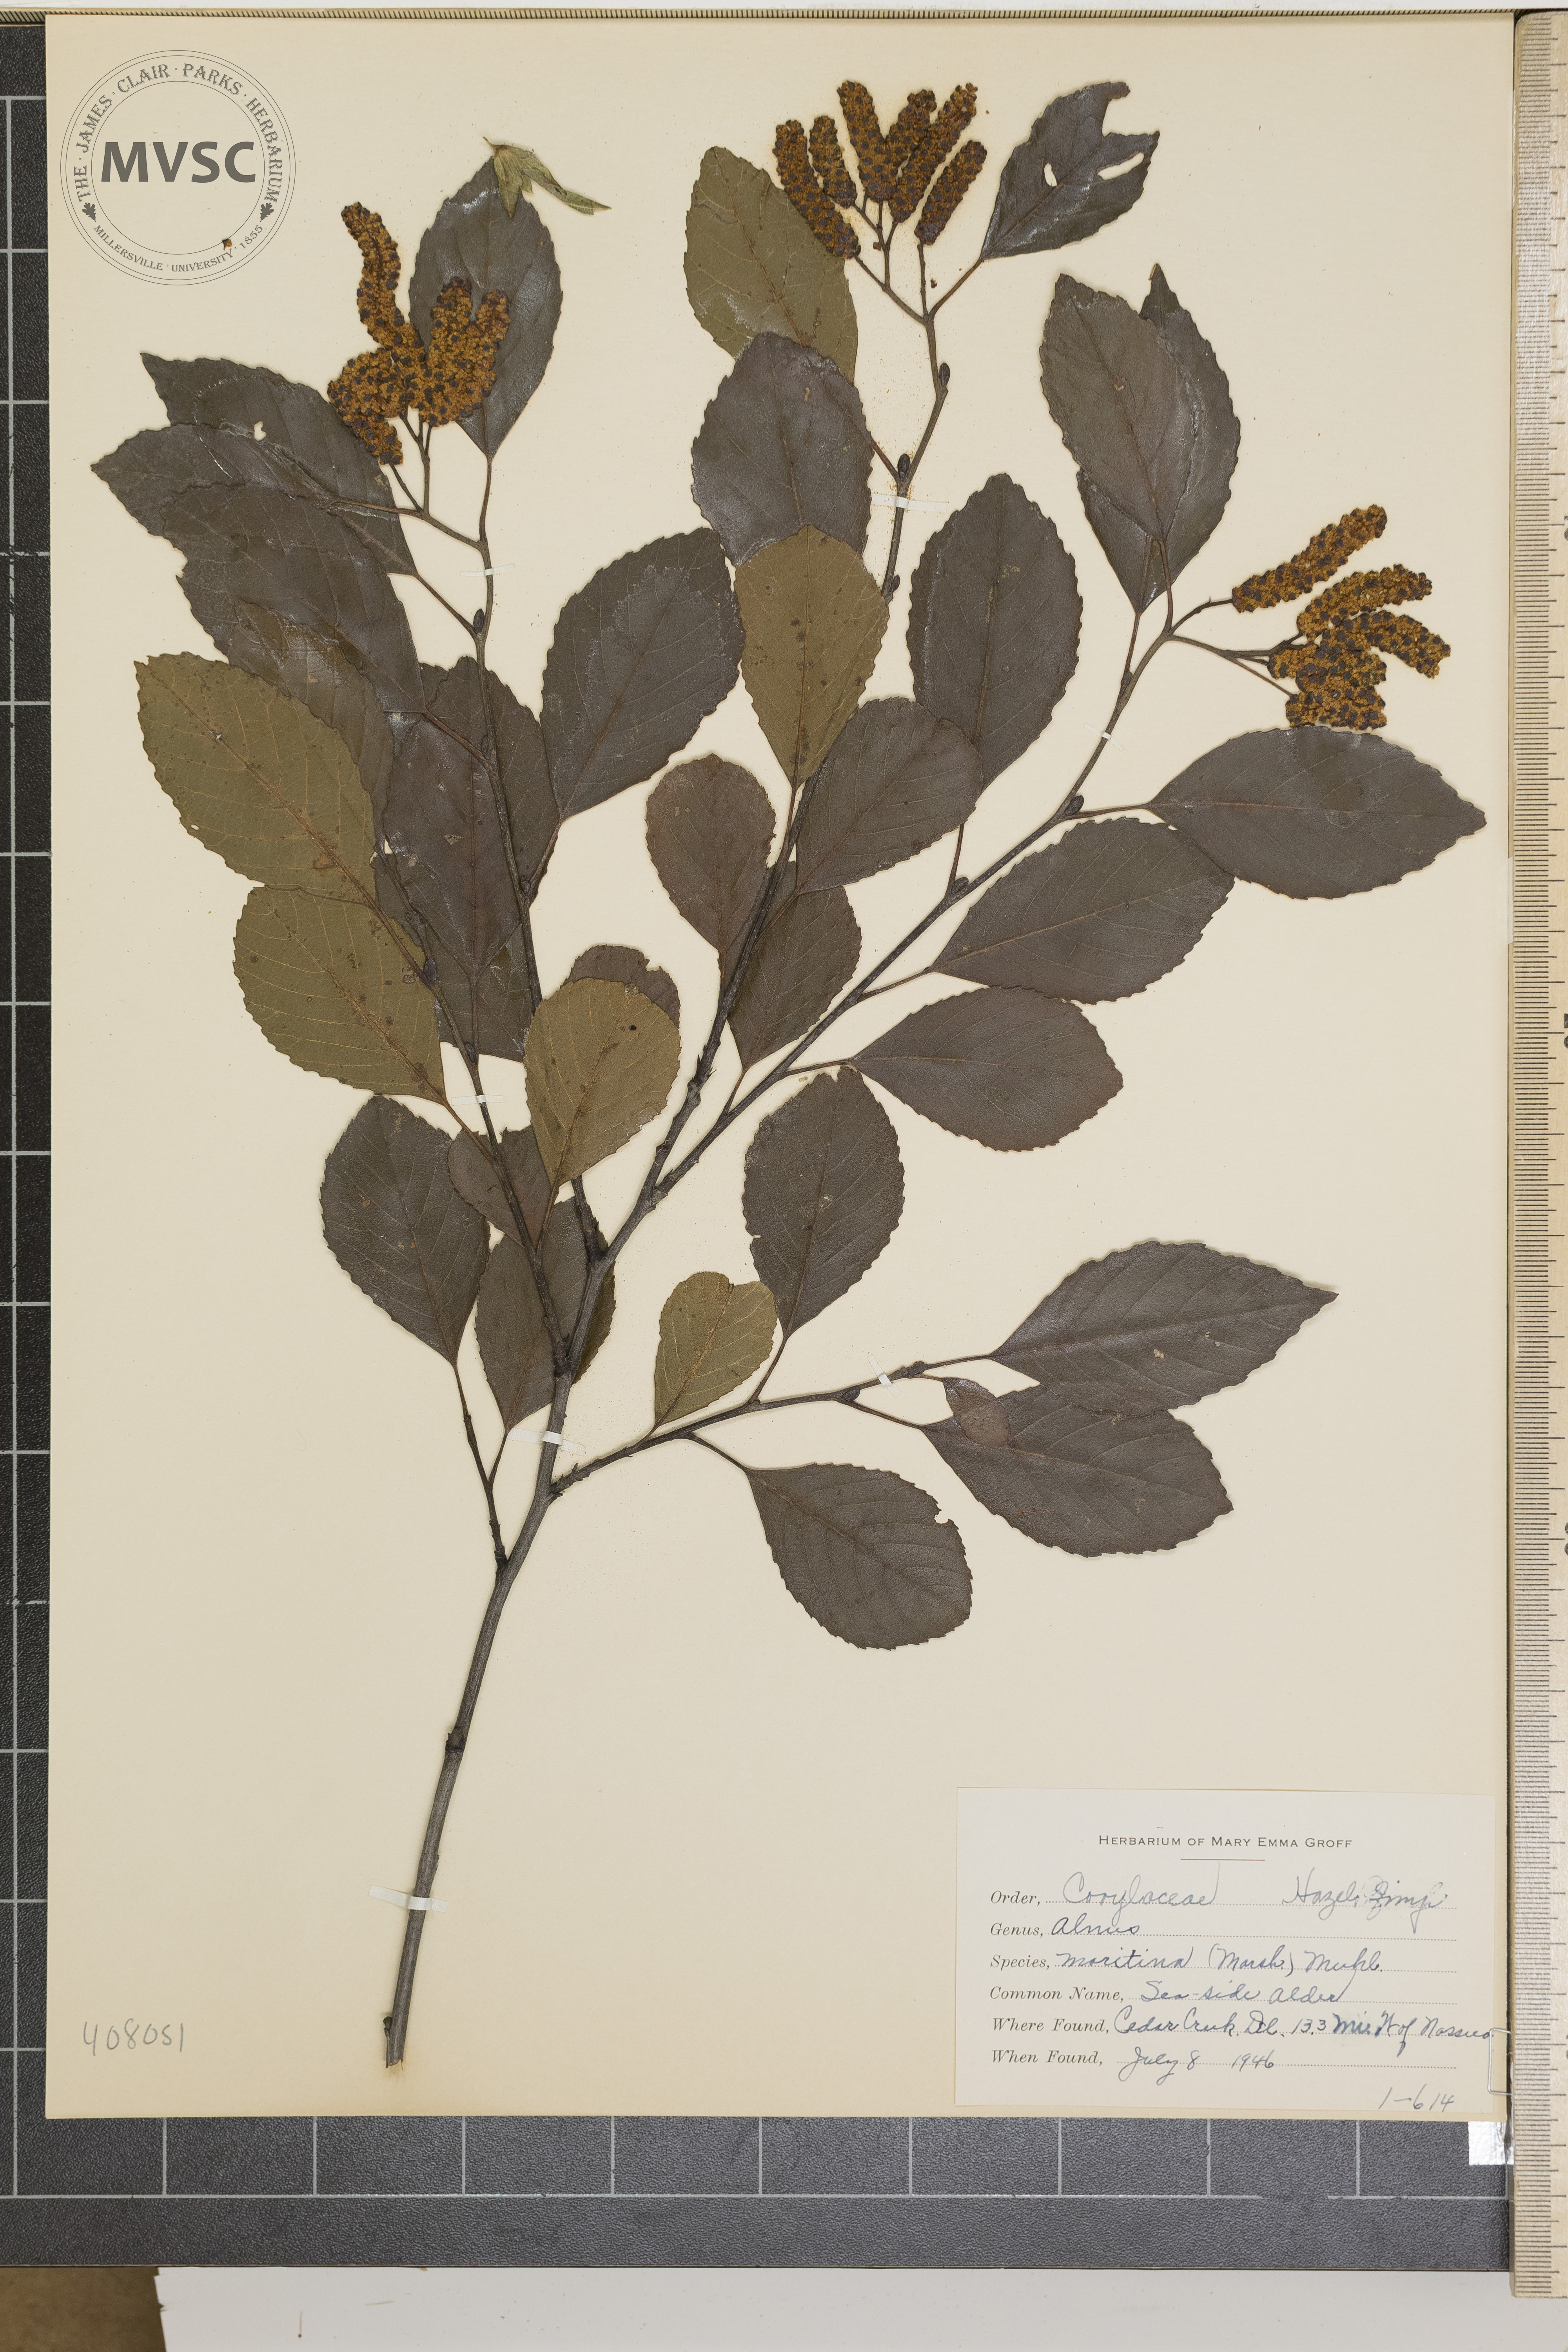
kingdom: Plantae
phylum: Tracheophyta
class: Magnoliopsida
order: Fagales
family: Betulaceae
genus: Alnus
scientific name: Alnus maritima
